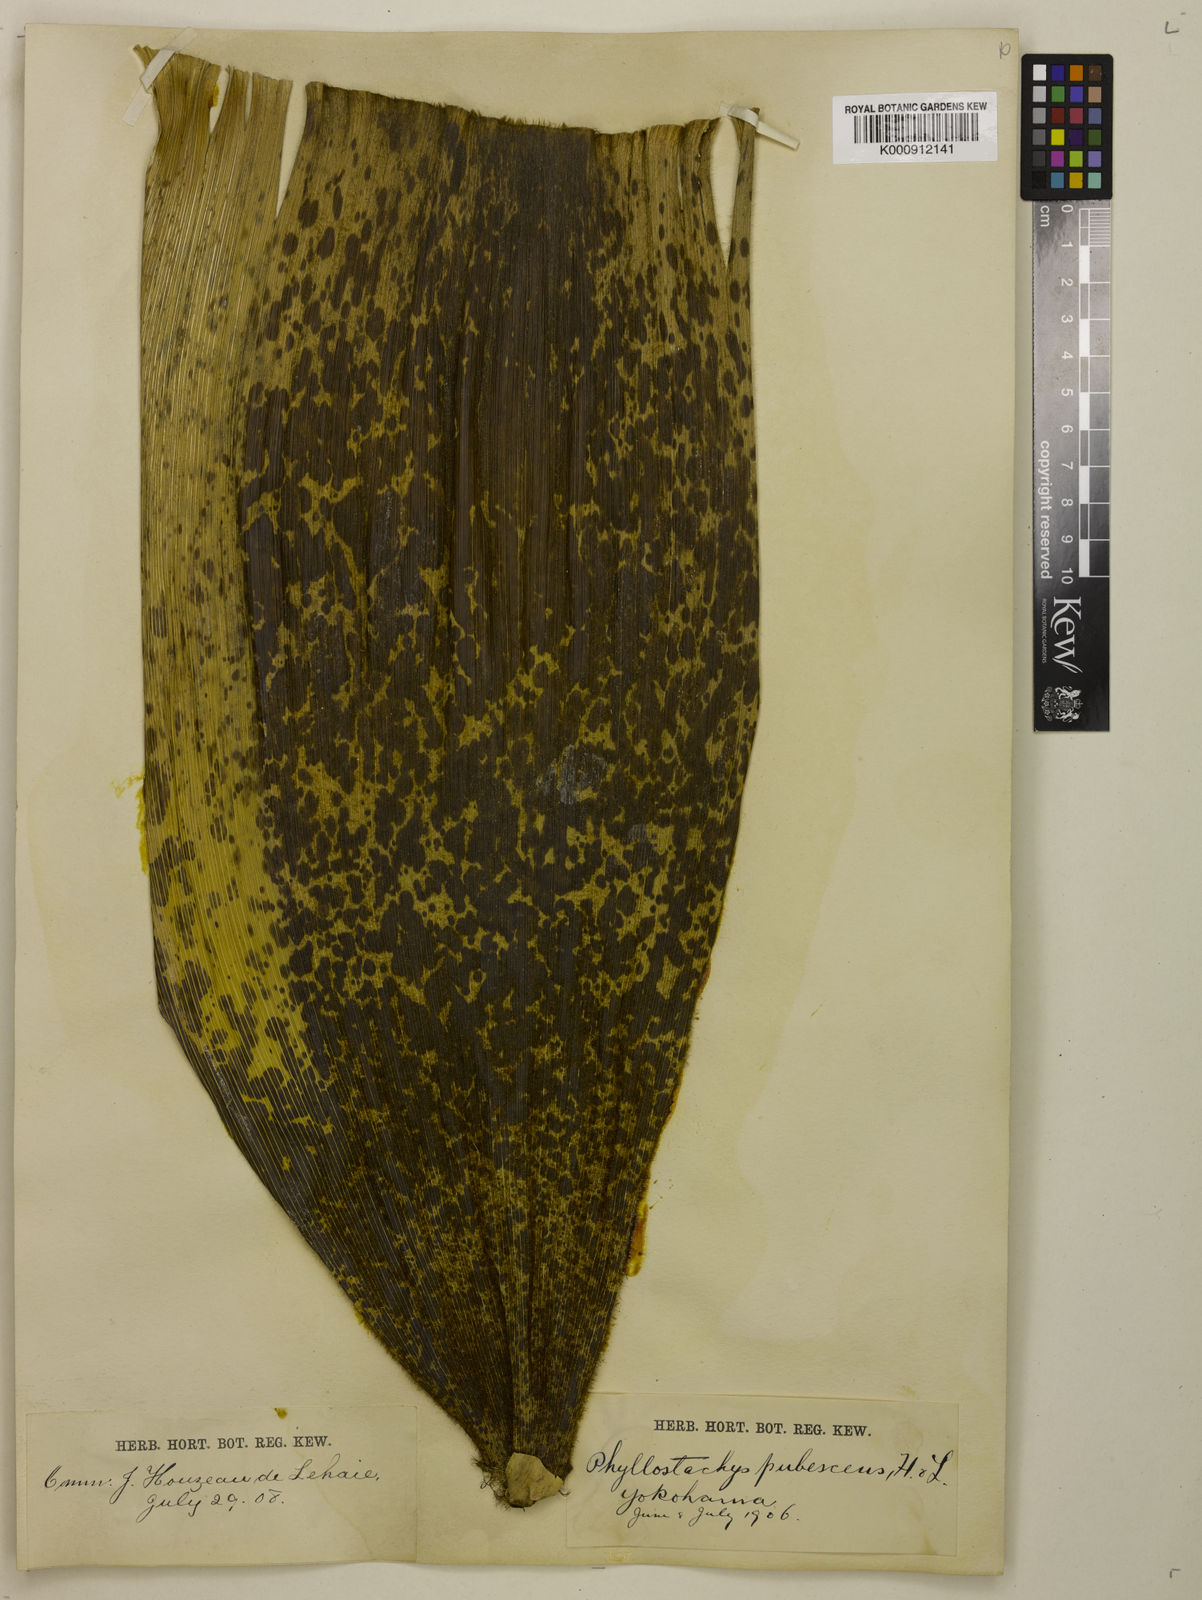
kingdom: Plantae
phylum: Tracheophyta
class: Liliopsida
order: Poales
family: Poaceae
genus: Phyllostachys
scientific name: Phyllostachys
